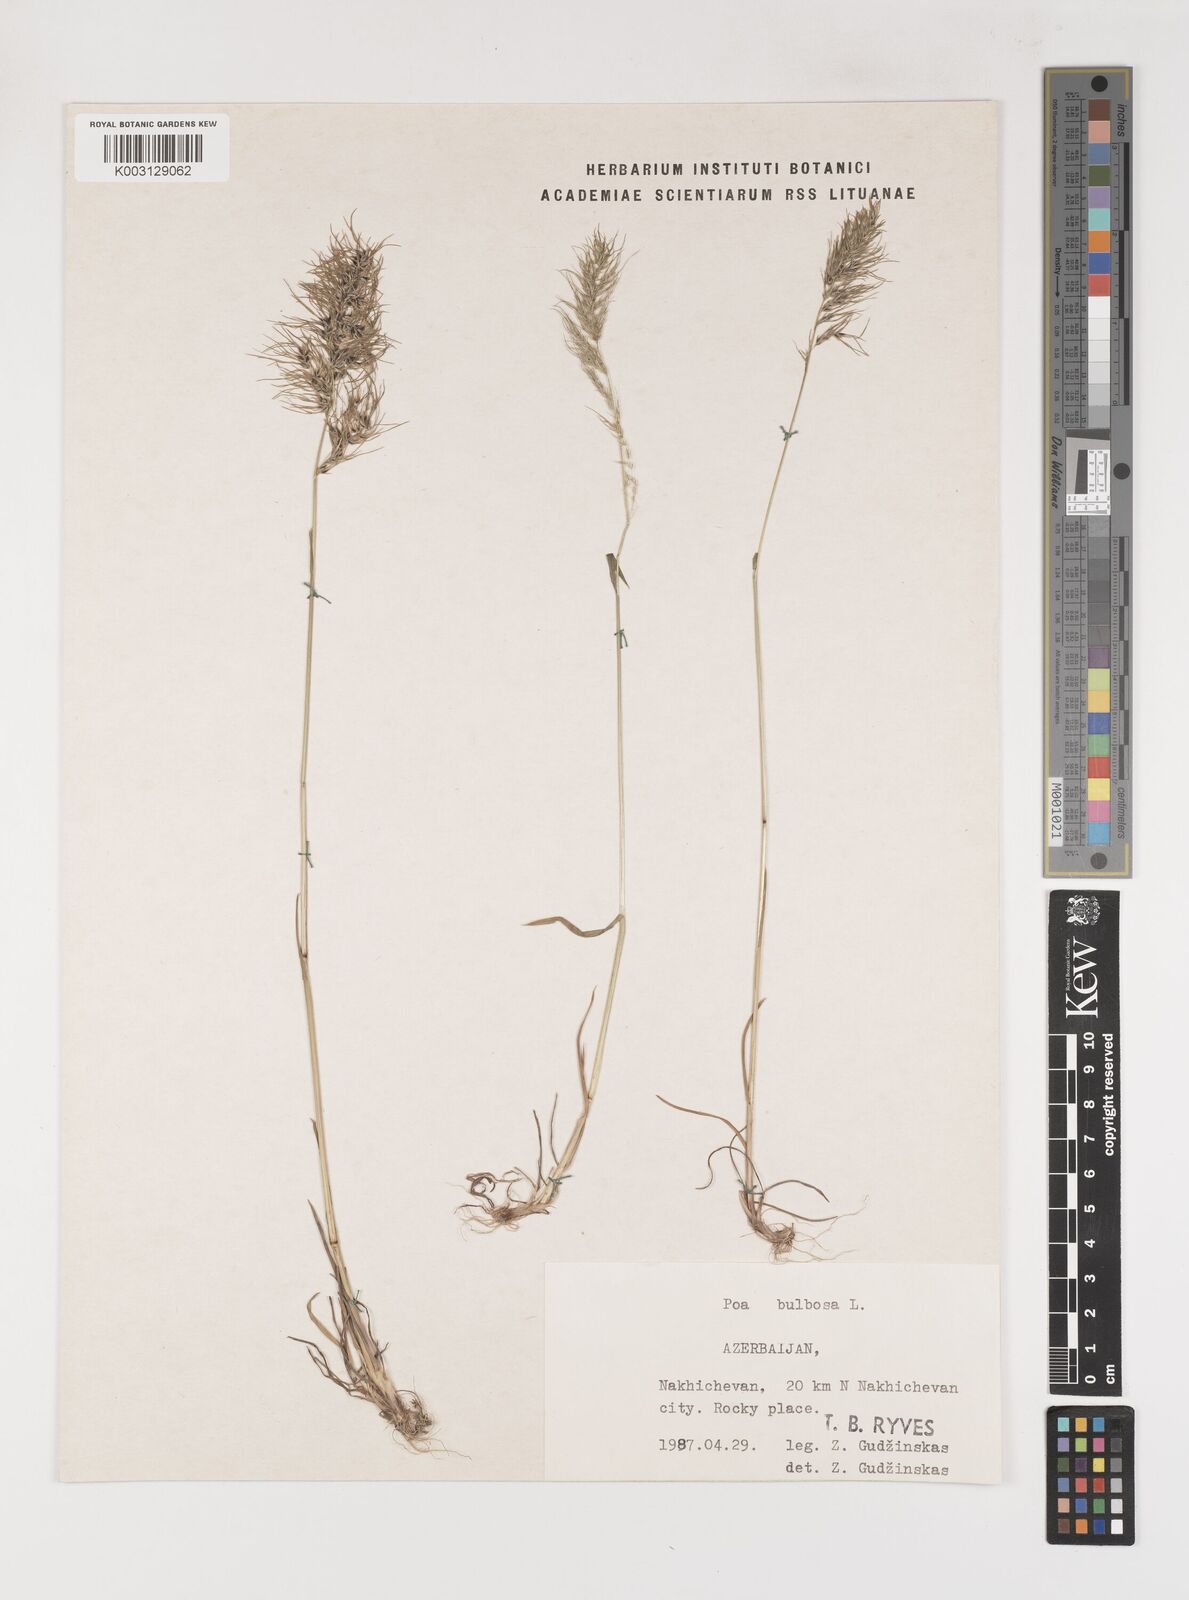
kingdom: Plantae
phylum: Tracheophyta
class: Liliopsida
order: Poales
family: Poaceae
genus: Poa
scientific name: Poa
